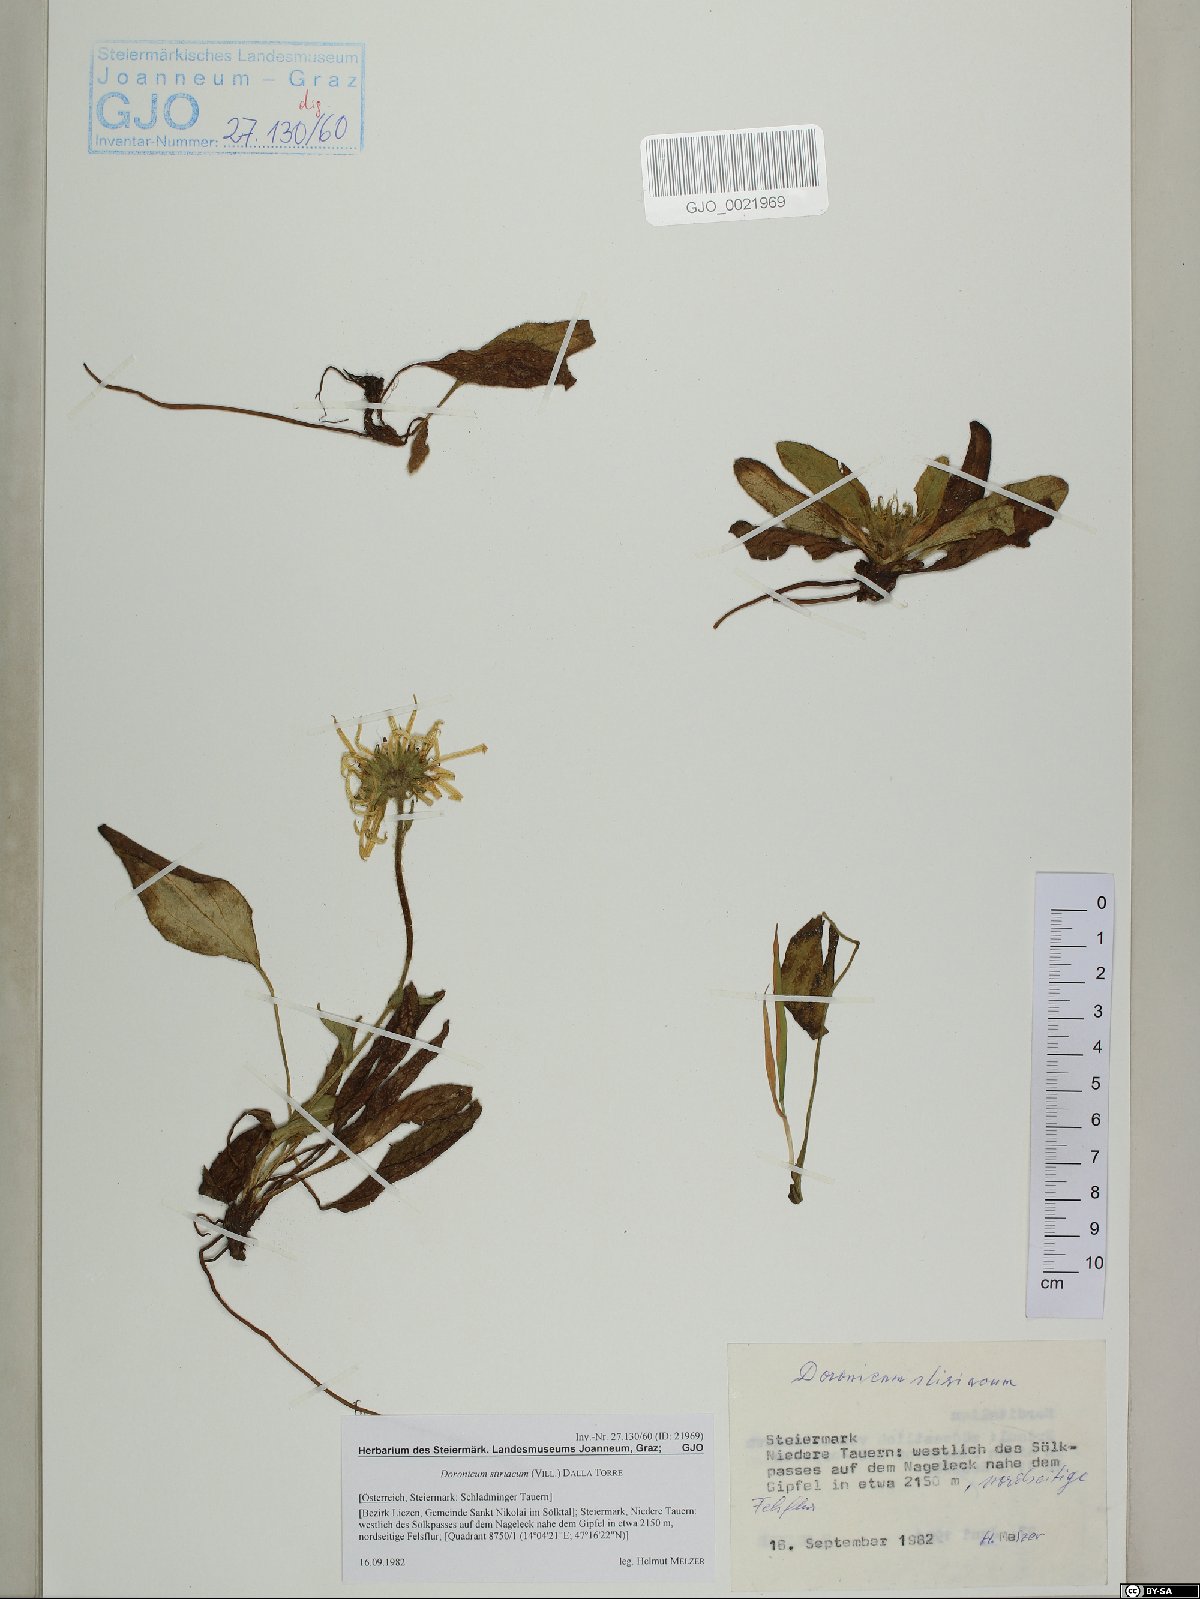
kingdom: Plantae
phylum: Tracheophyta
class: Magnoliopsida
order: Asterales
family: Asteraceae
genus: Doronicum
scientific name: Doronicum clusii
